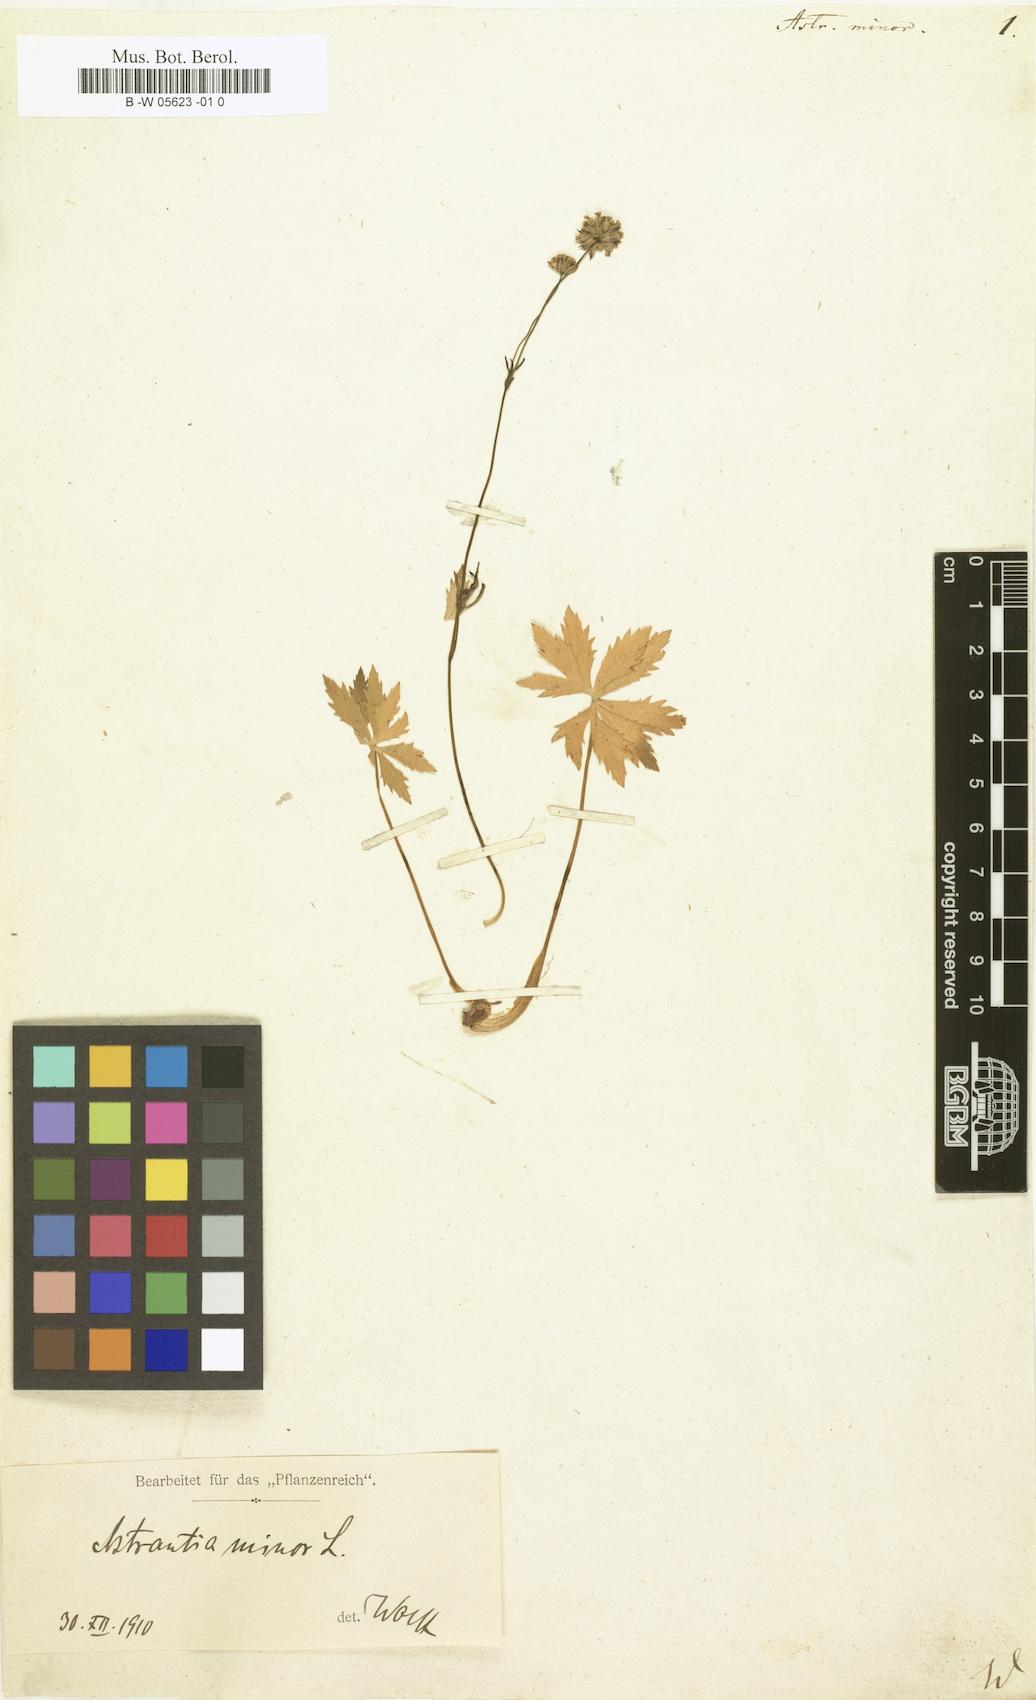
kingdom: Plantae
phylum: Tracheophyta
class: Magnoliopsida
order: Apiales
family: Apiaceae
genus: Astrantia
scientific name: Astrantia minor
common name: Lesser masterwort
